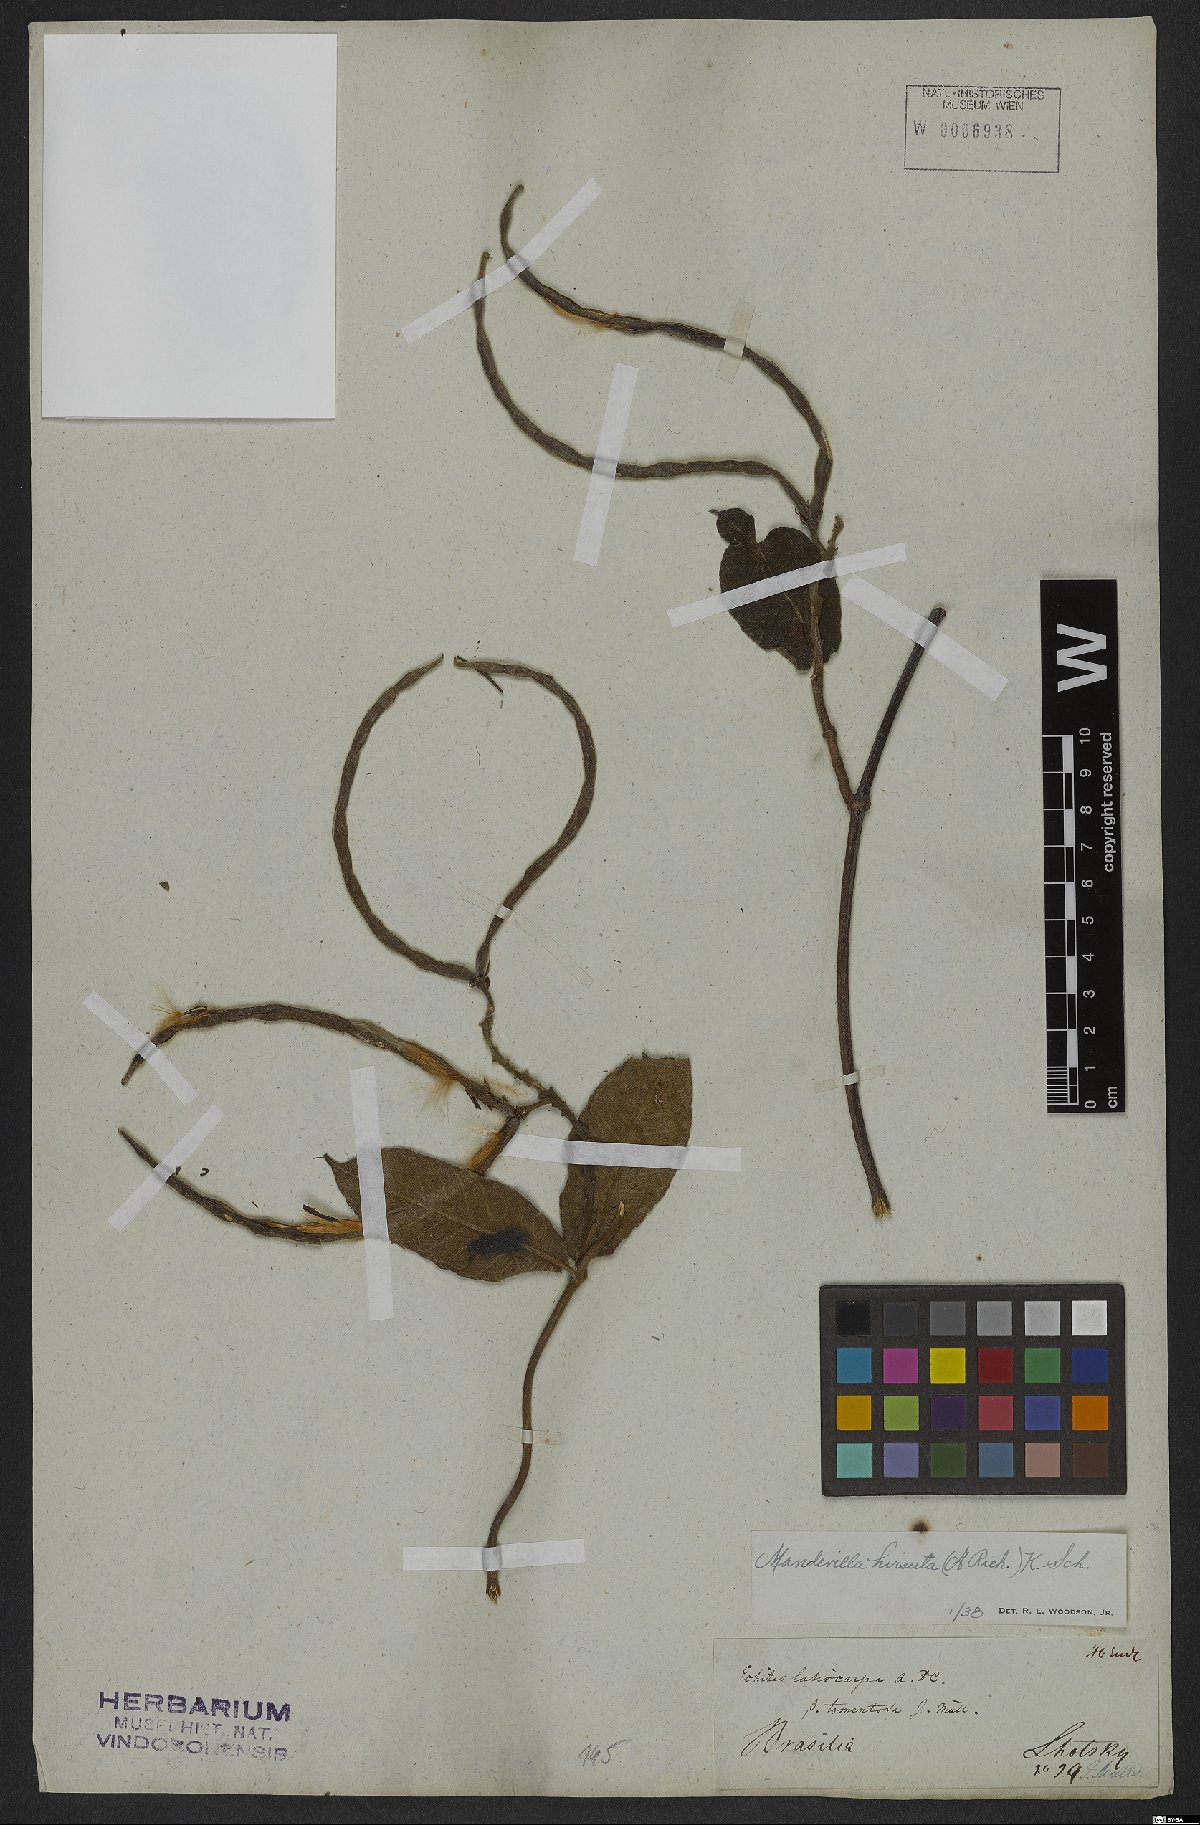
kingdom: Plantae
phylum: Tracheophyta
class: Magnoliopsida
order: Gentianales
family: Apocynaceae
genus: Mandevilla
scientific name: Mandevilla hirsuta
